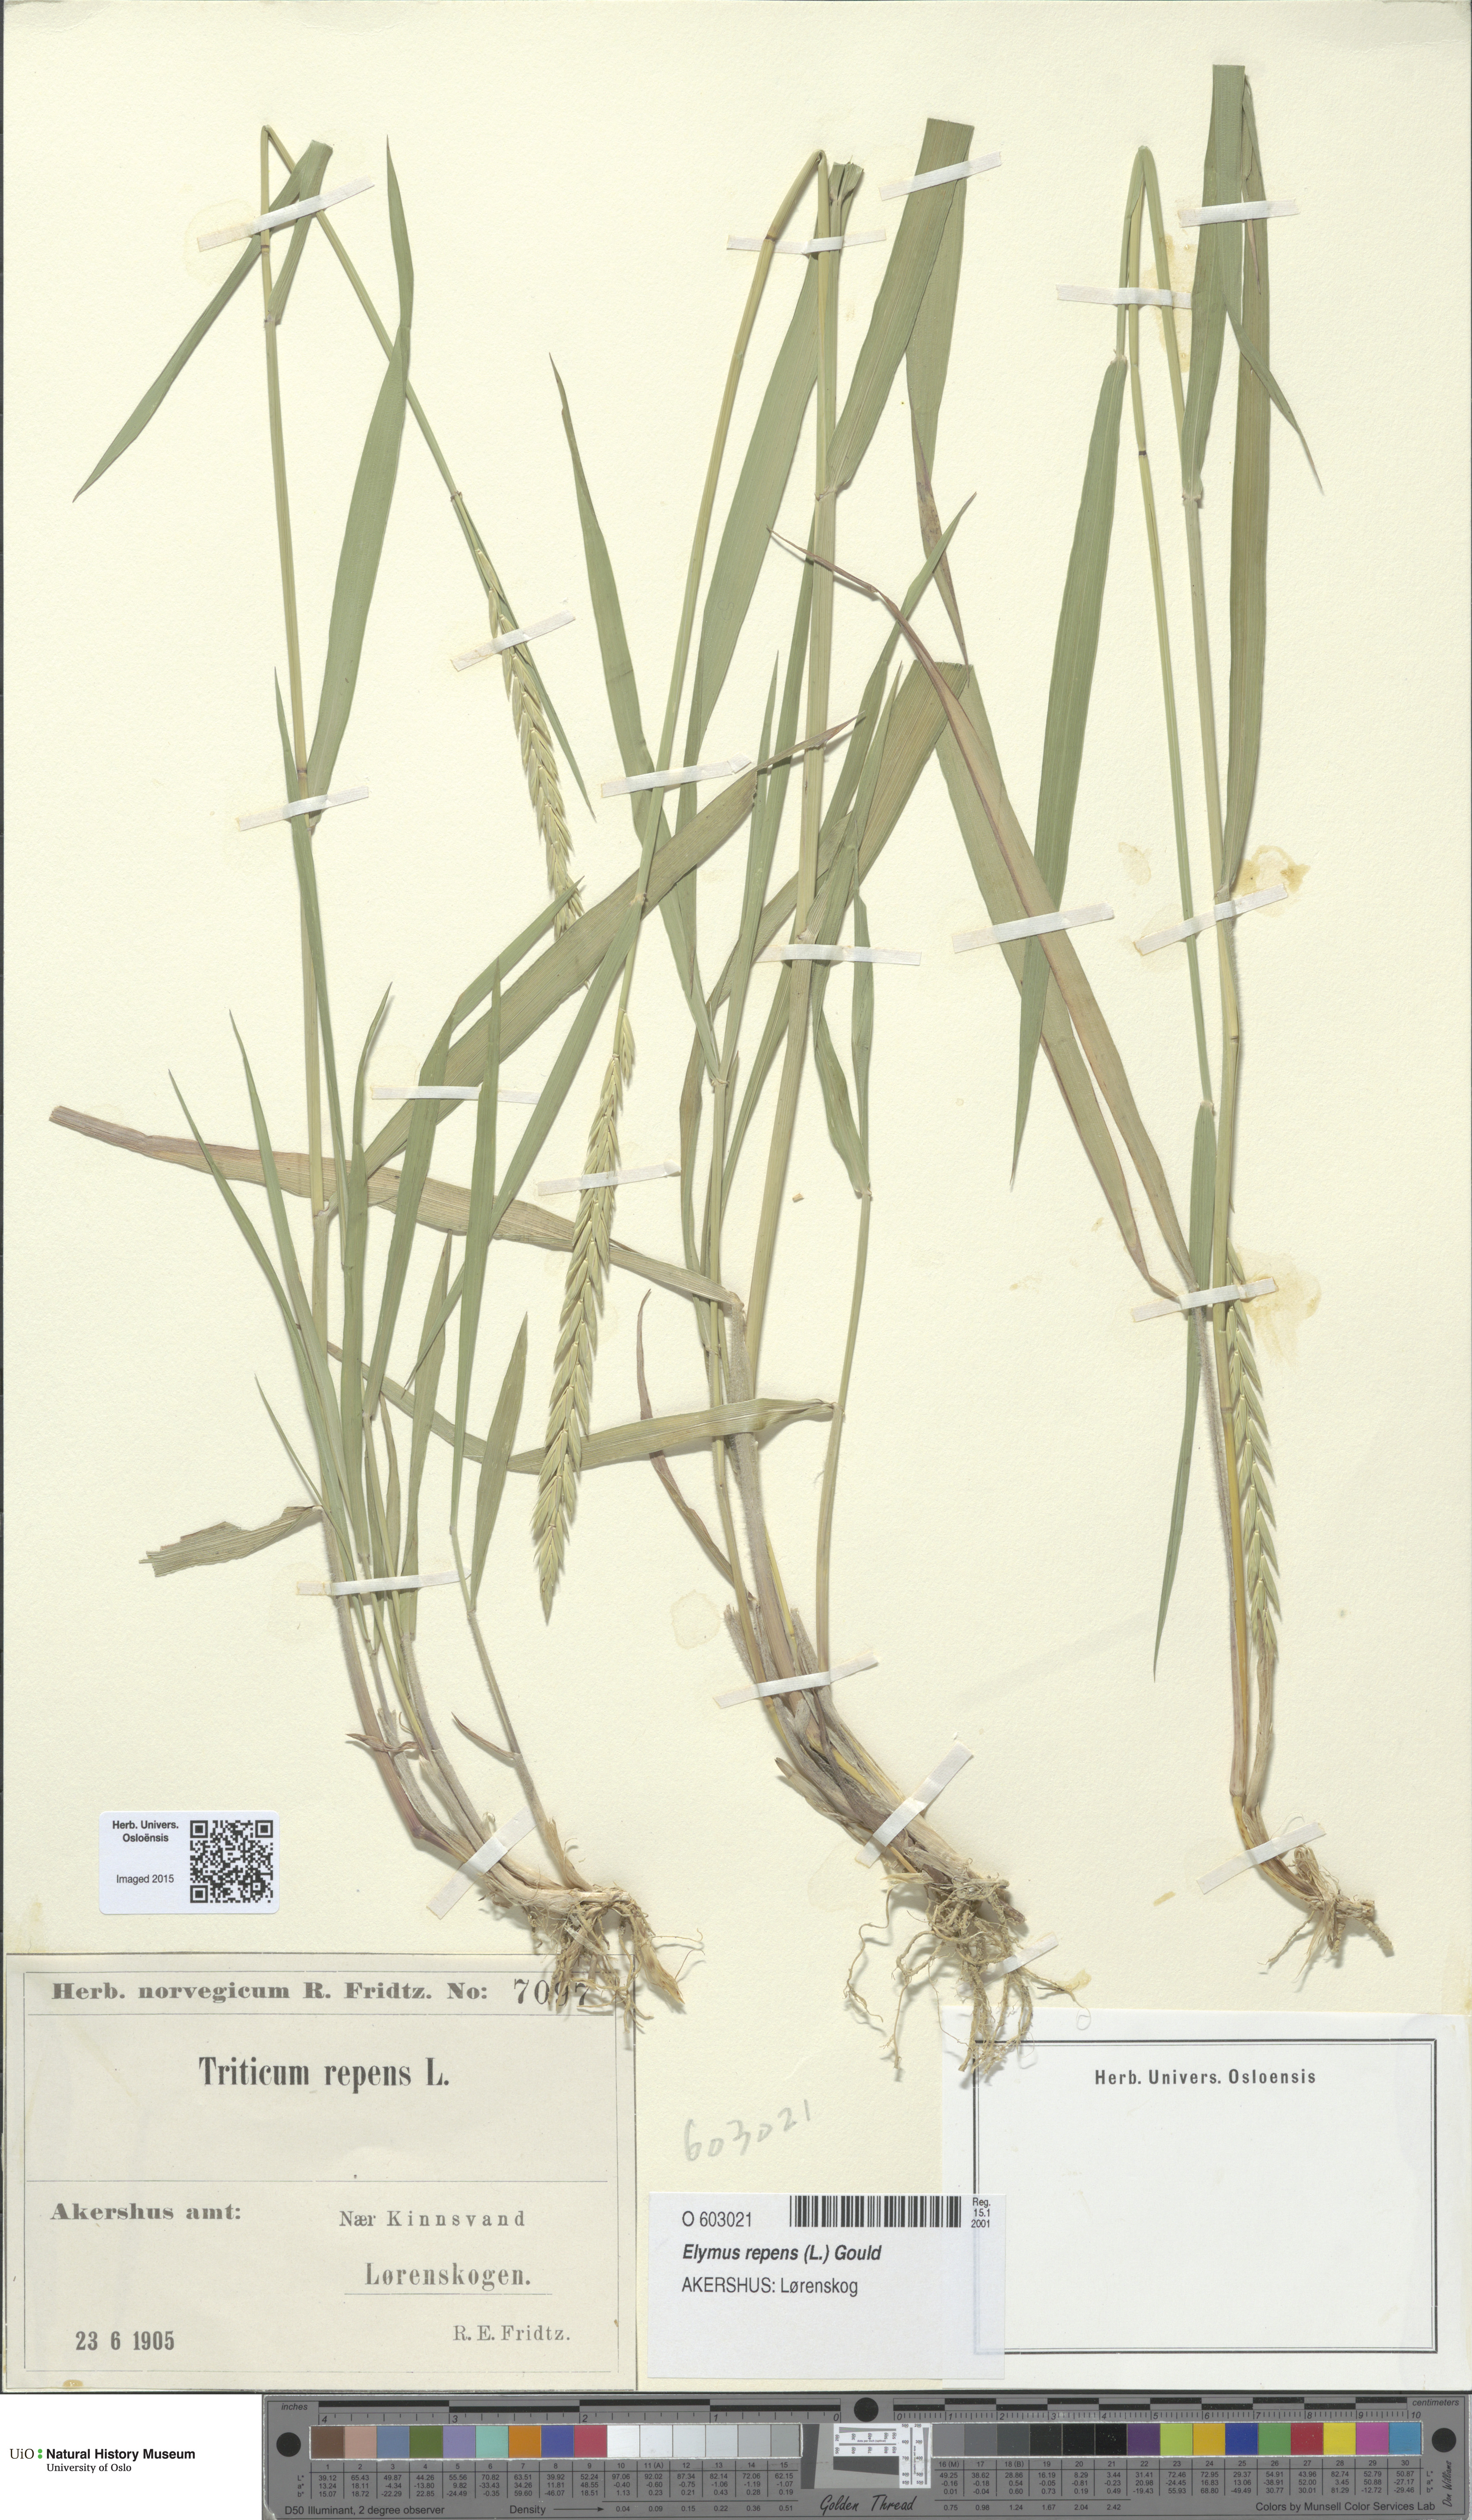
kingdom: Plantae
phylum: Tracheophyta
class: Liliopsida
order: Poales
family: Poaceae
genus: Elymus
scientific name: Elymus repens
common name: Quackgrass
